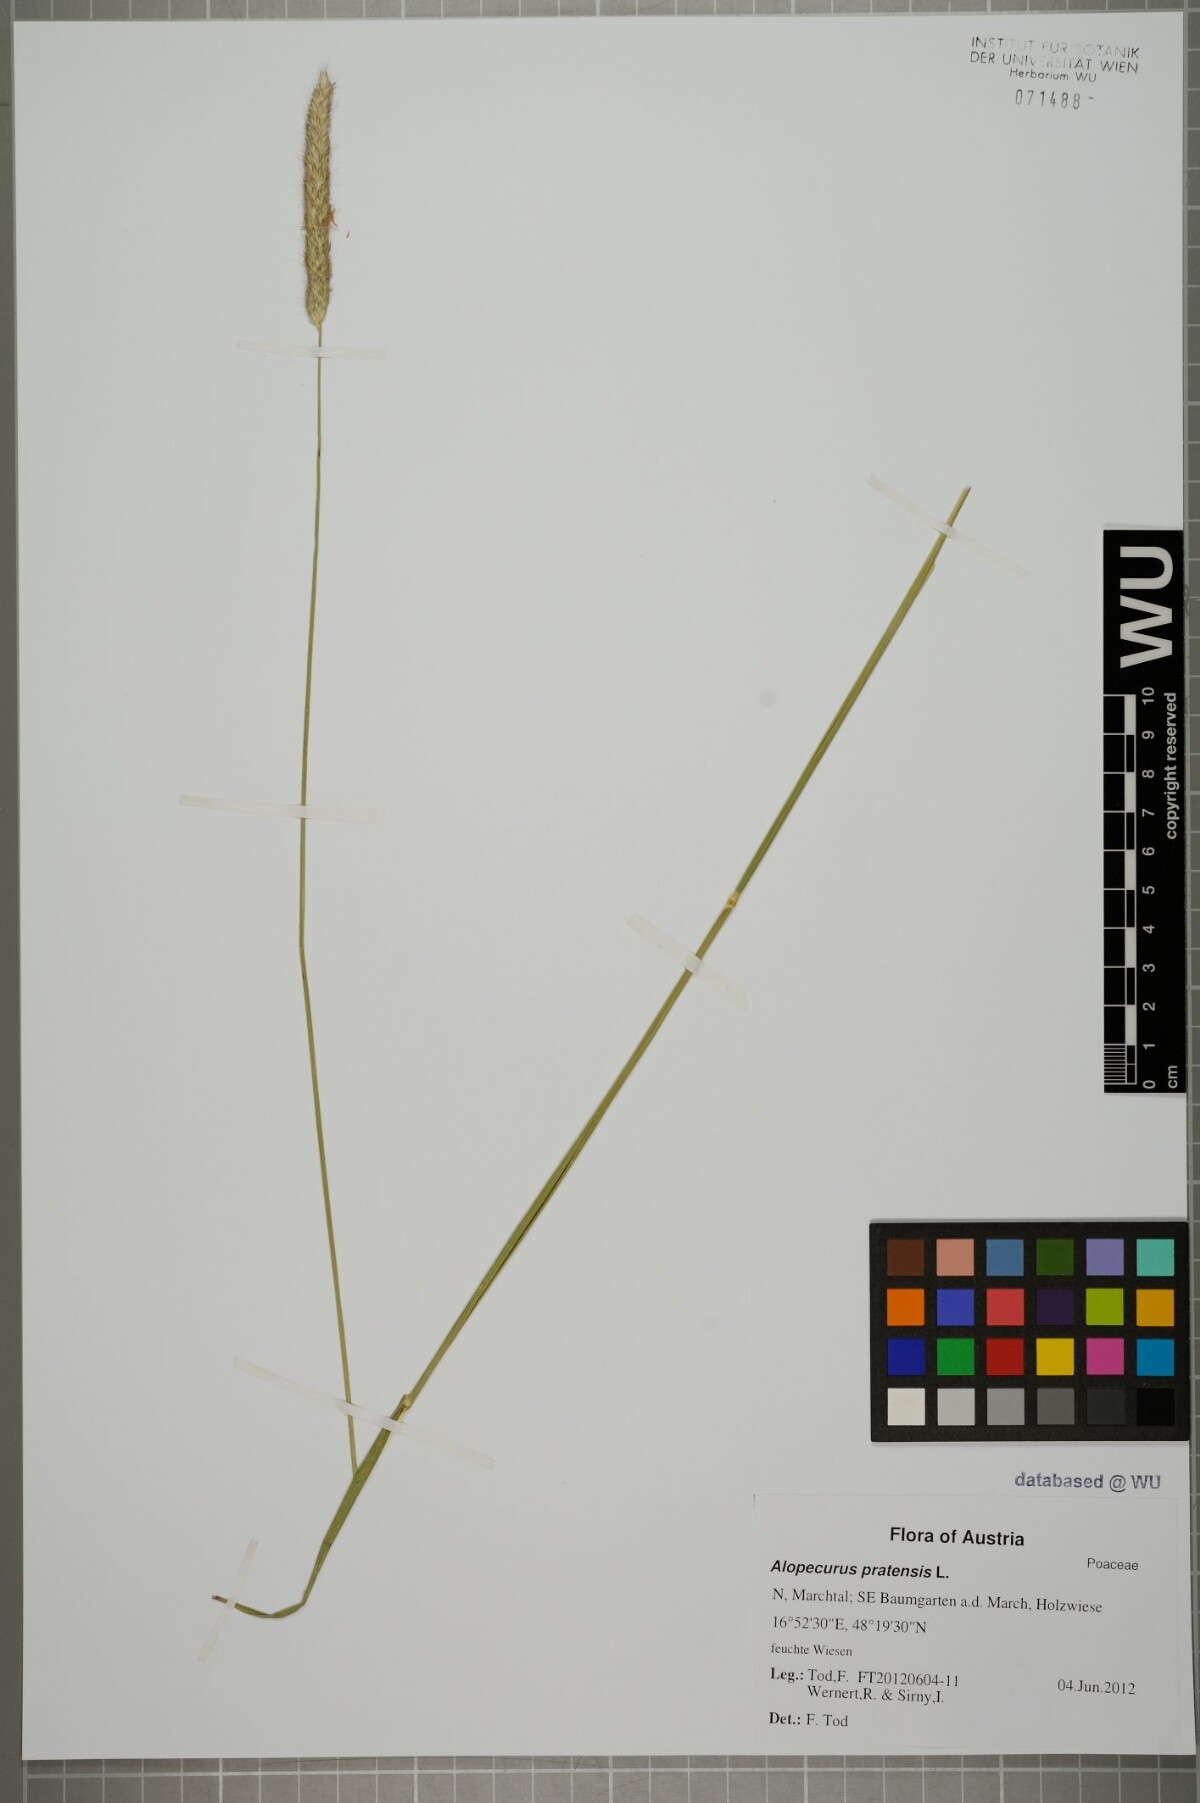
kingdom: Plantae
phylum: Tracheophyta
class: Liliopsida
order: Poales
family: Poaceae
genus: Alopecurus
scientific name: Alopecurus pratensis
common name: Meadow foxtail
